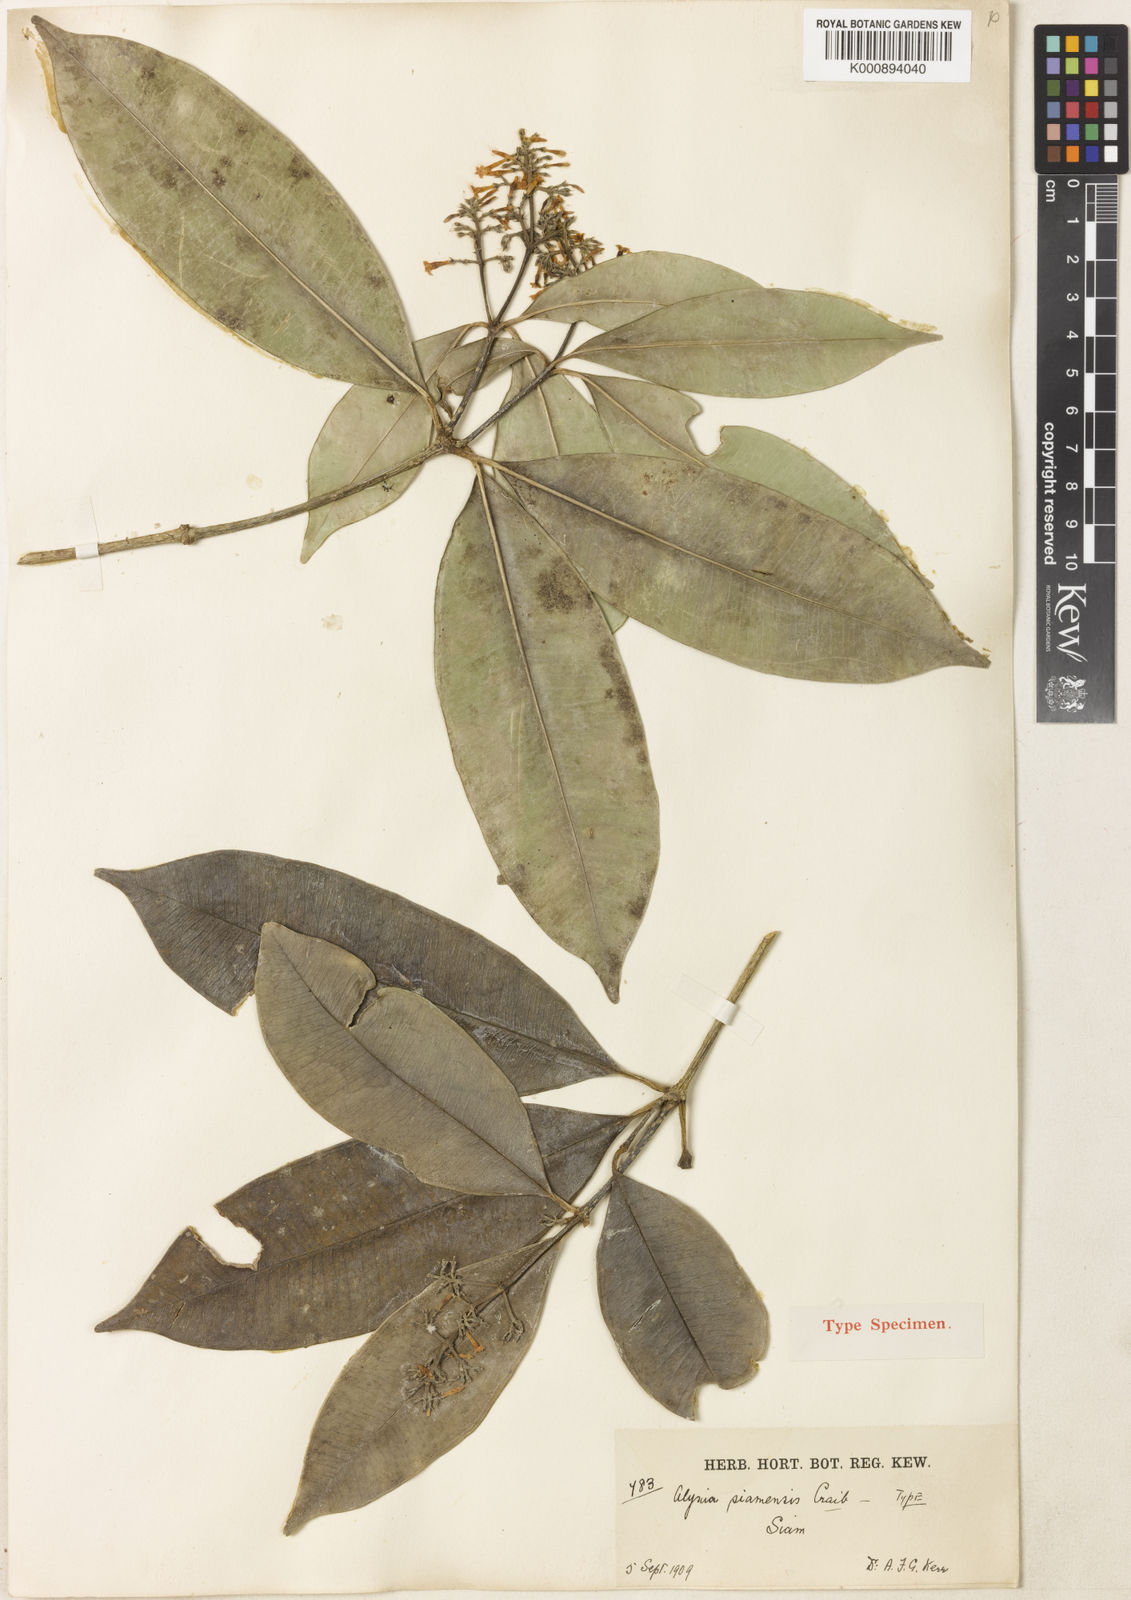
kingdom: Plantae
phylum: Tracheophyta
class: Magnoliopsida
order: Gentianales
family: Apocynaceae
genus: Alyxia
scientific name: Alyxia siamensis
